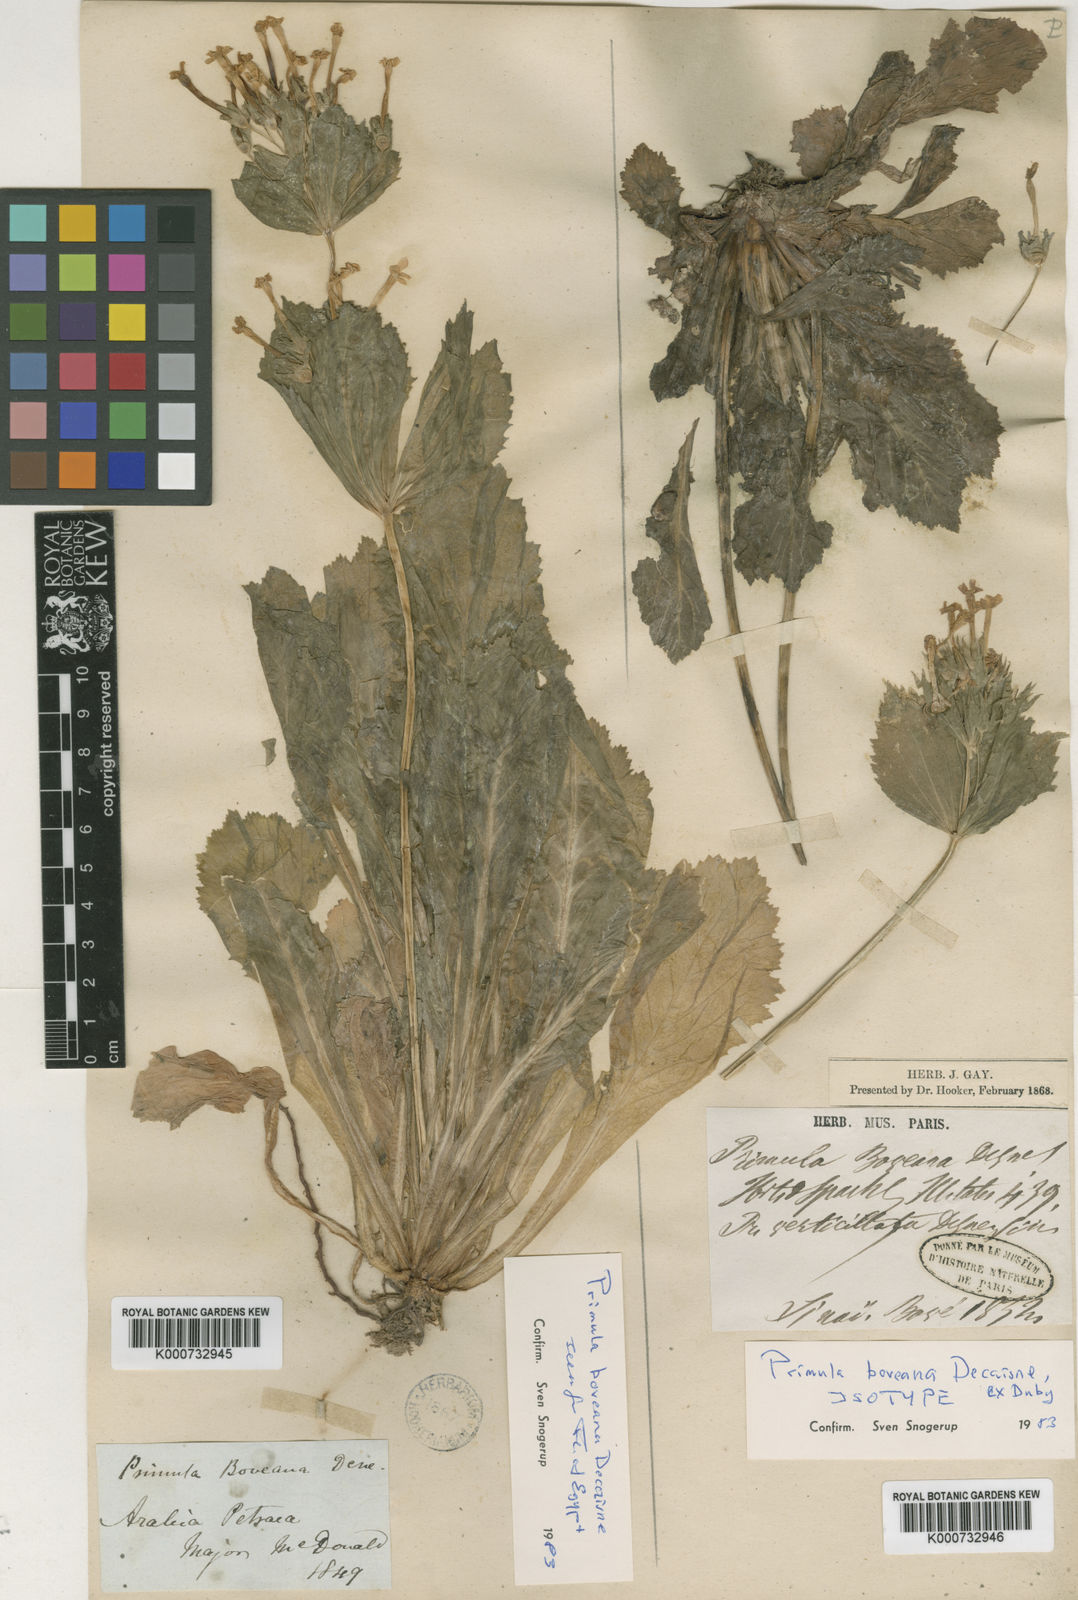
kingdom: Plantae
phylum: Tracheophyta
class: Magnoliopsida
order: Ericales
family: Primulaceae
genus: Evotrochis
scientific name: Evotrochis involucrata
